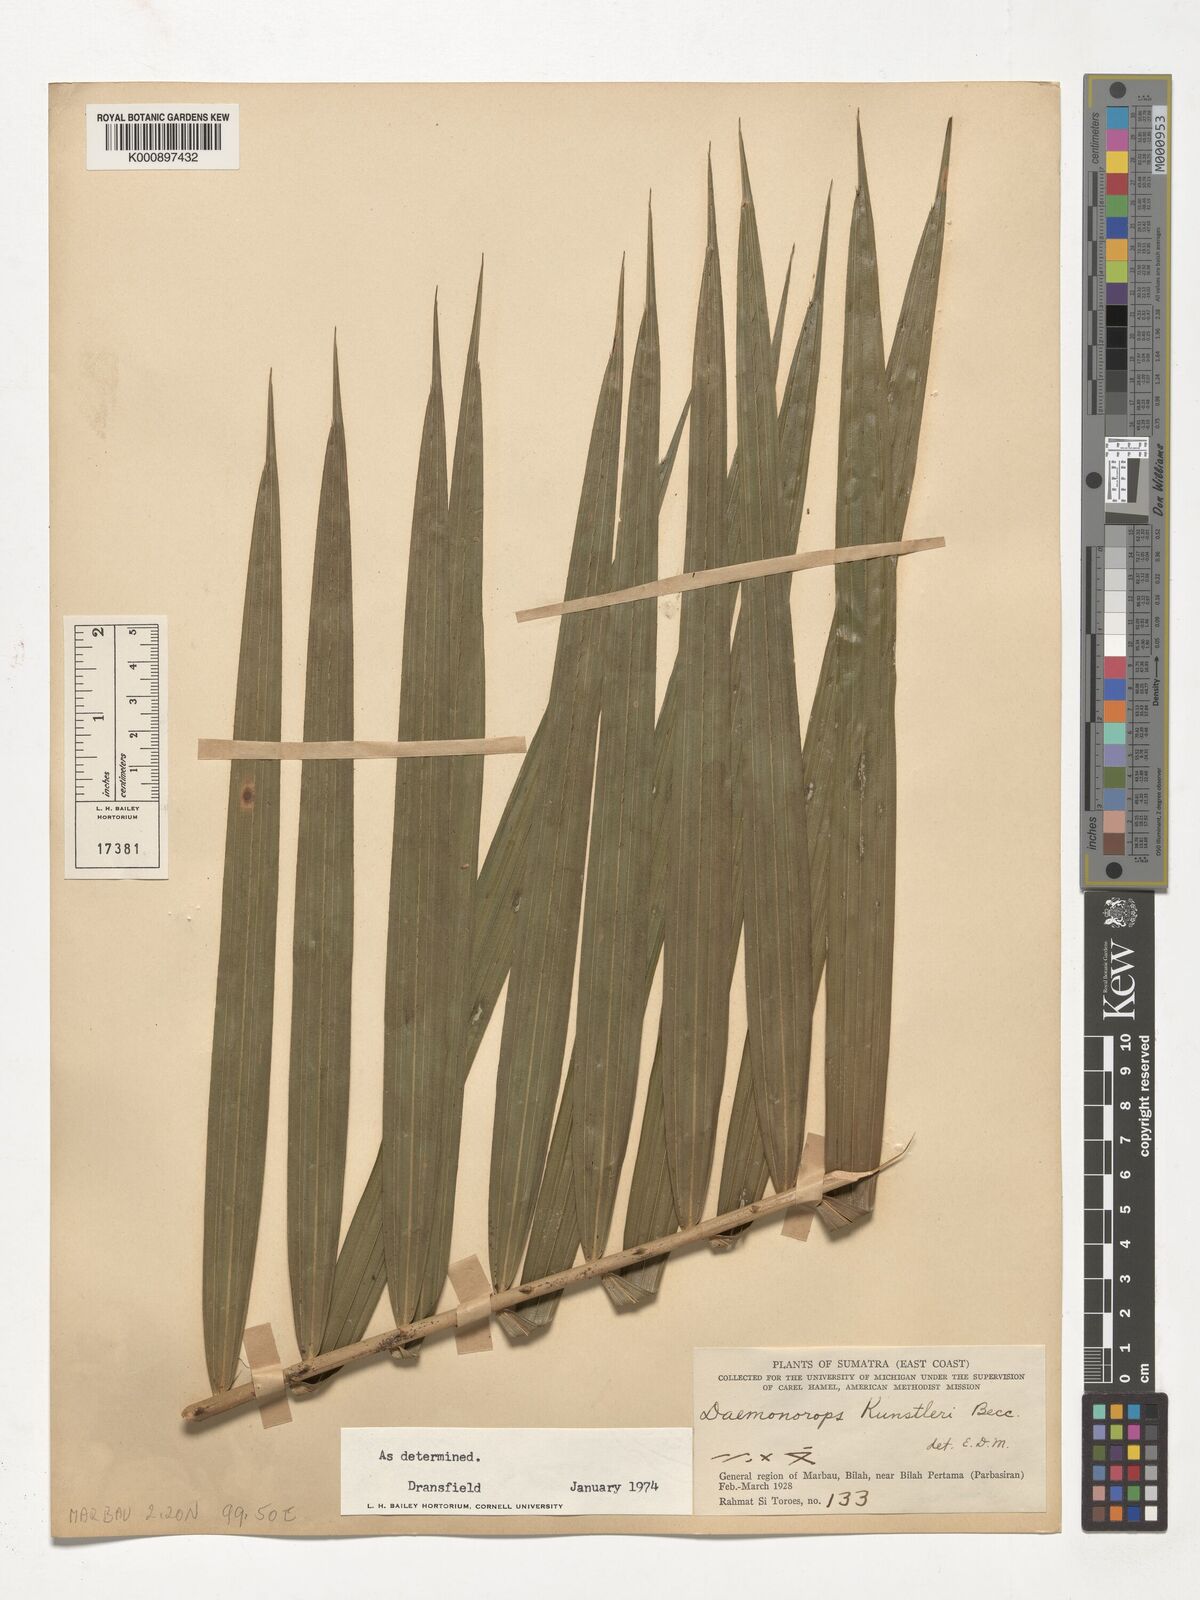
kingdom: Plantae
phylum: Tracheophyta
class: Liliopsida
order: Arecales
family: Arecaceae
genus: Calamus
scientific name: Calamus kunstleri
